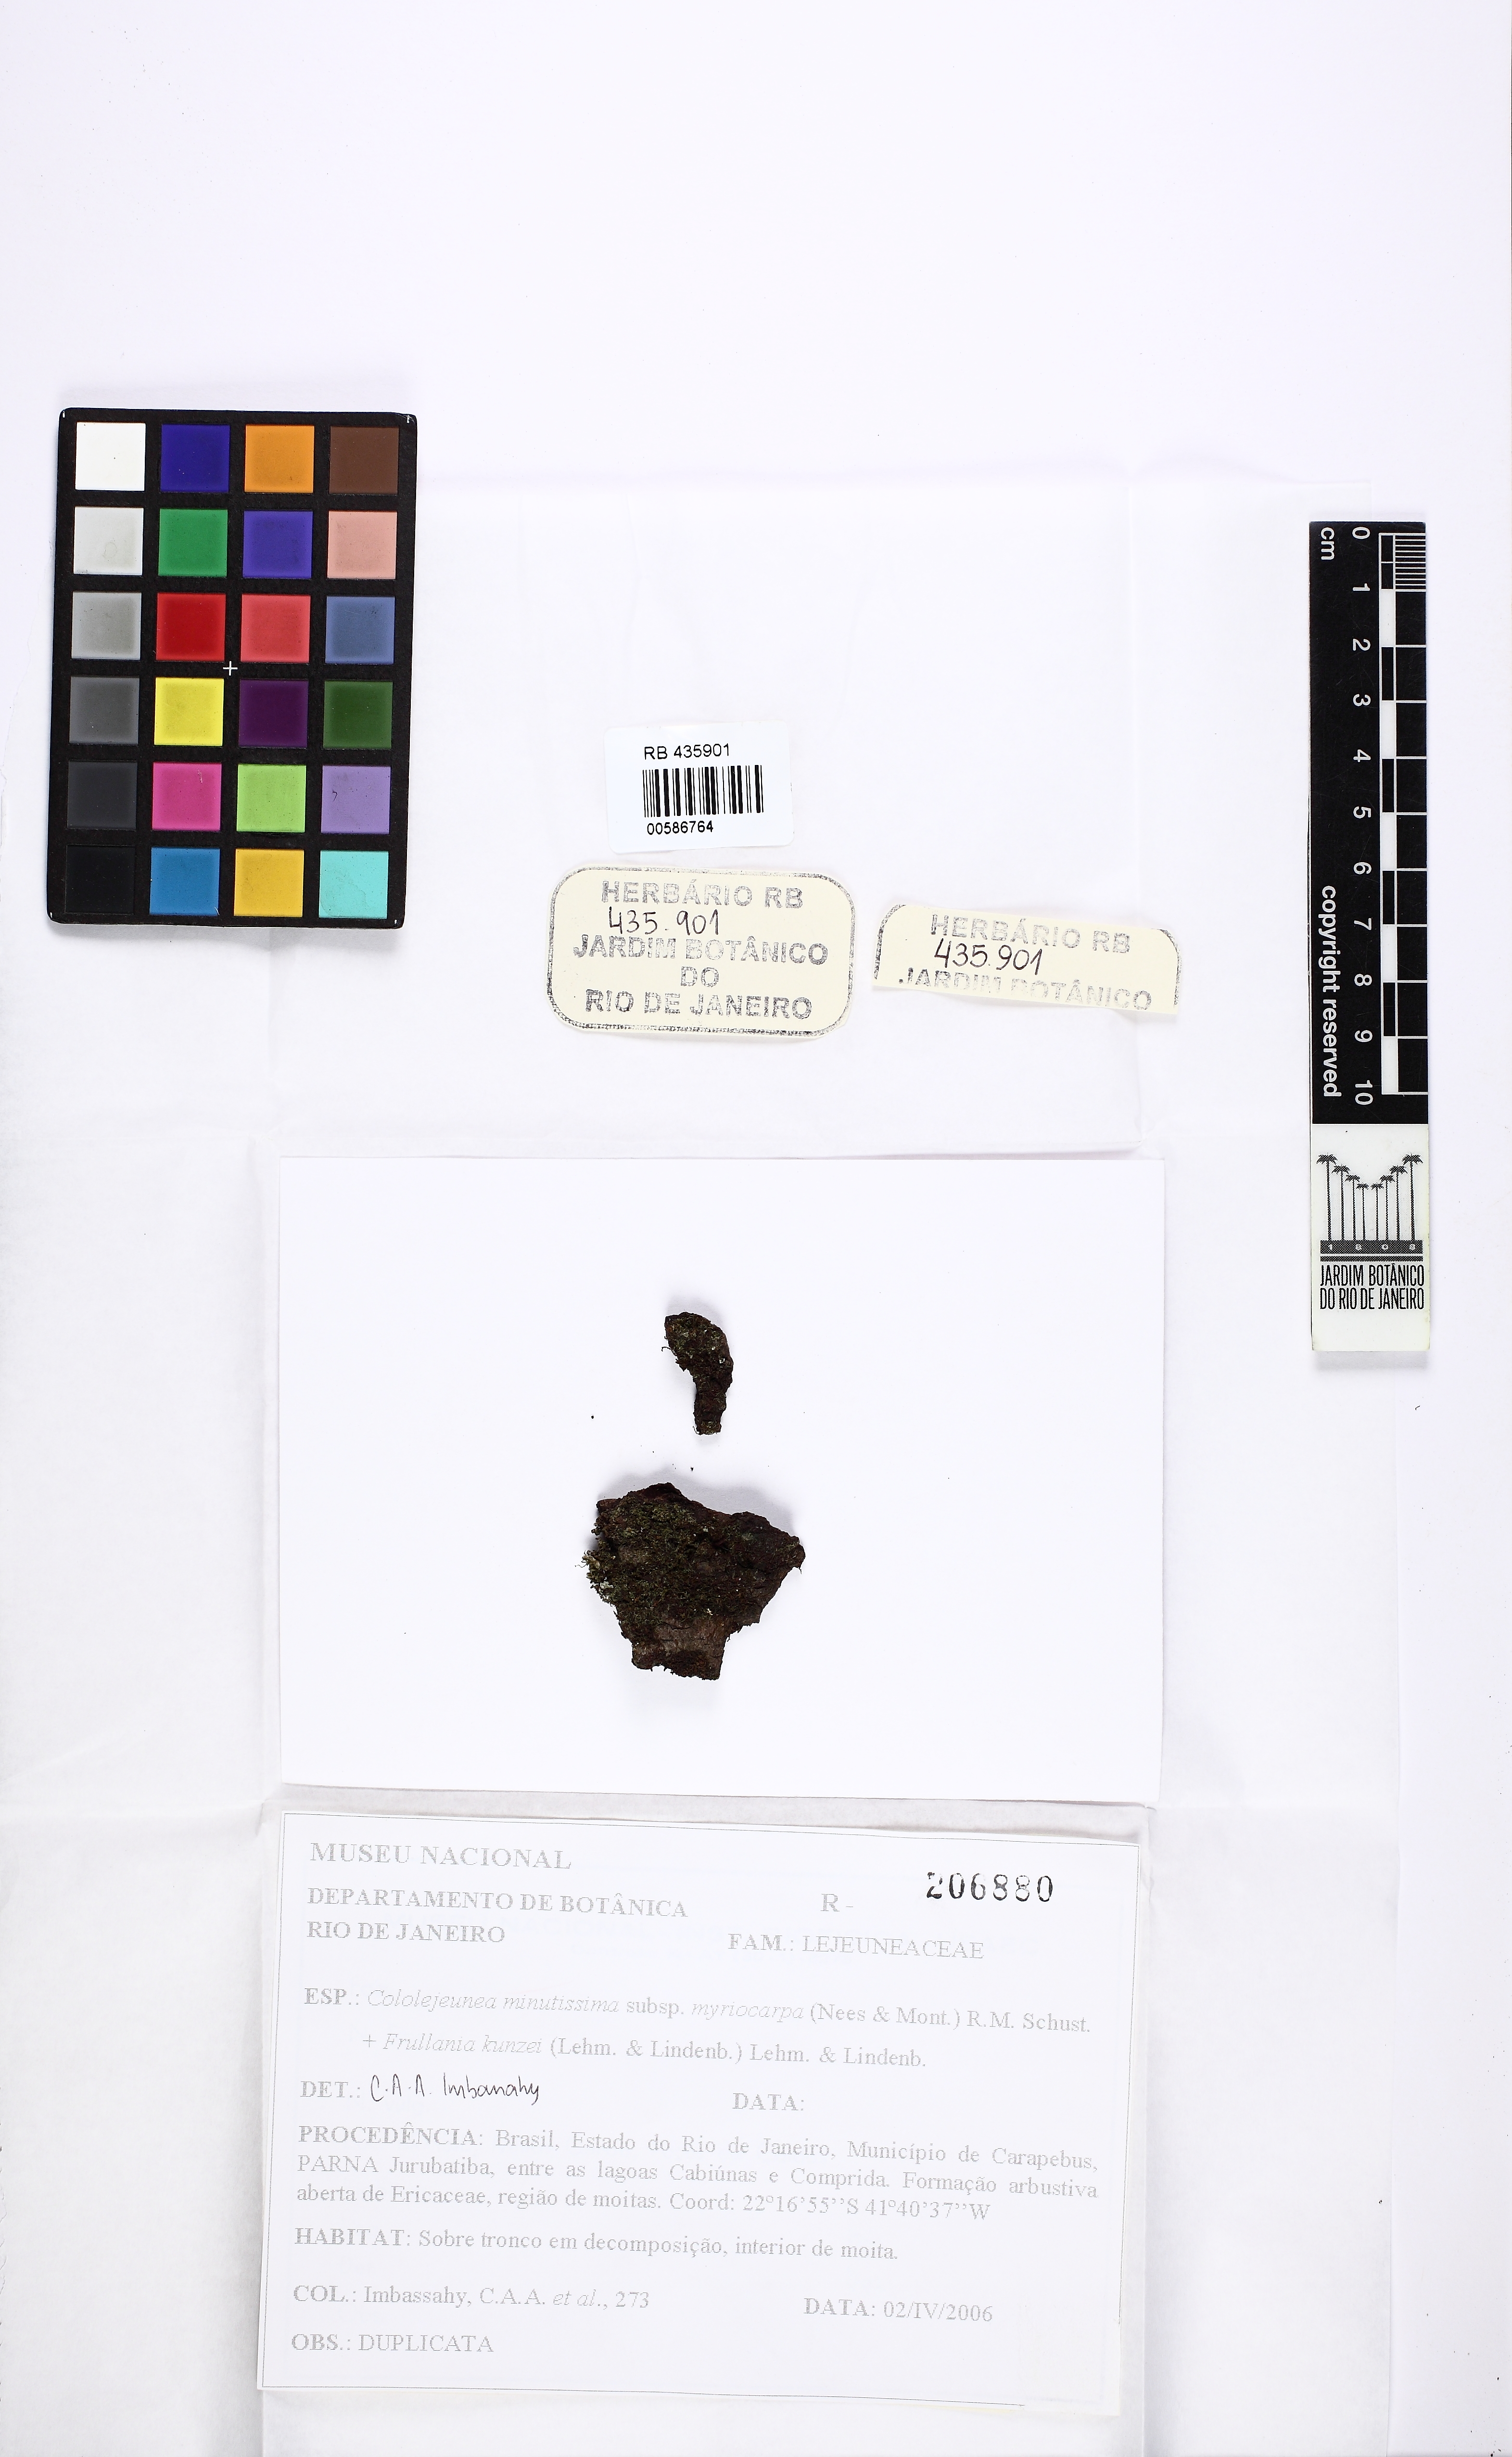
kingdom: Plantae
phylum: Marchantiophyta
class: Jungermanniopsida
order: Porellales
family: Lejeuneaceae
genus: Myriocoleopsis
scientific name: Myriocoleopsis minutissima
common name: Minute pouncewort
